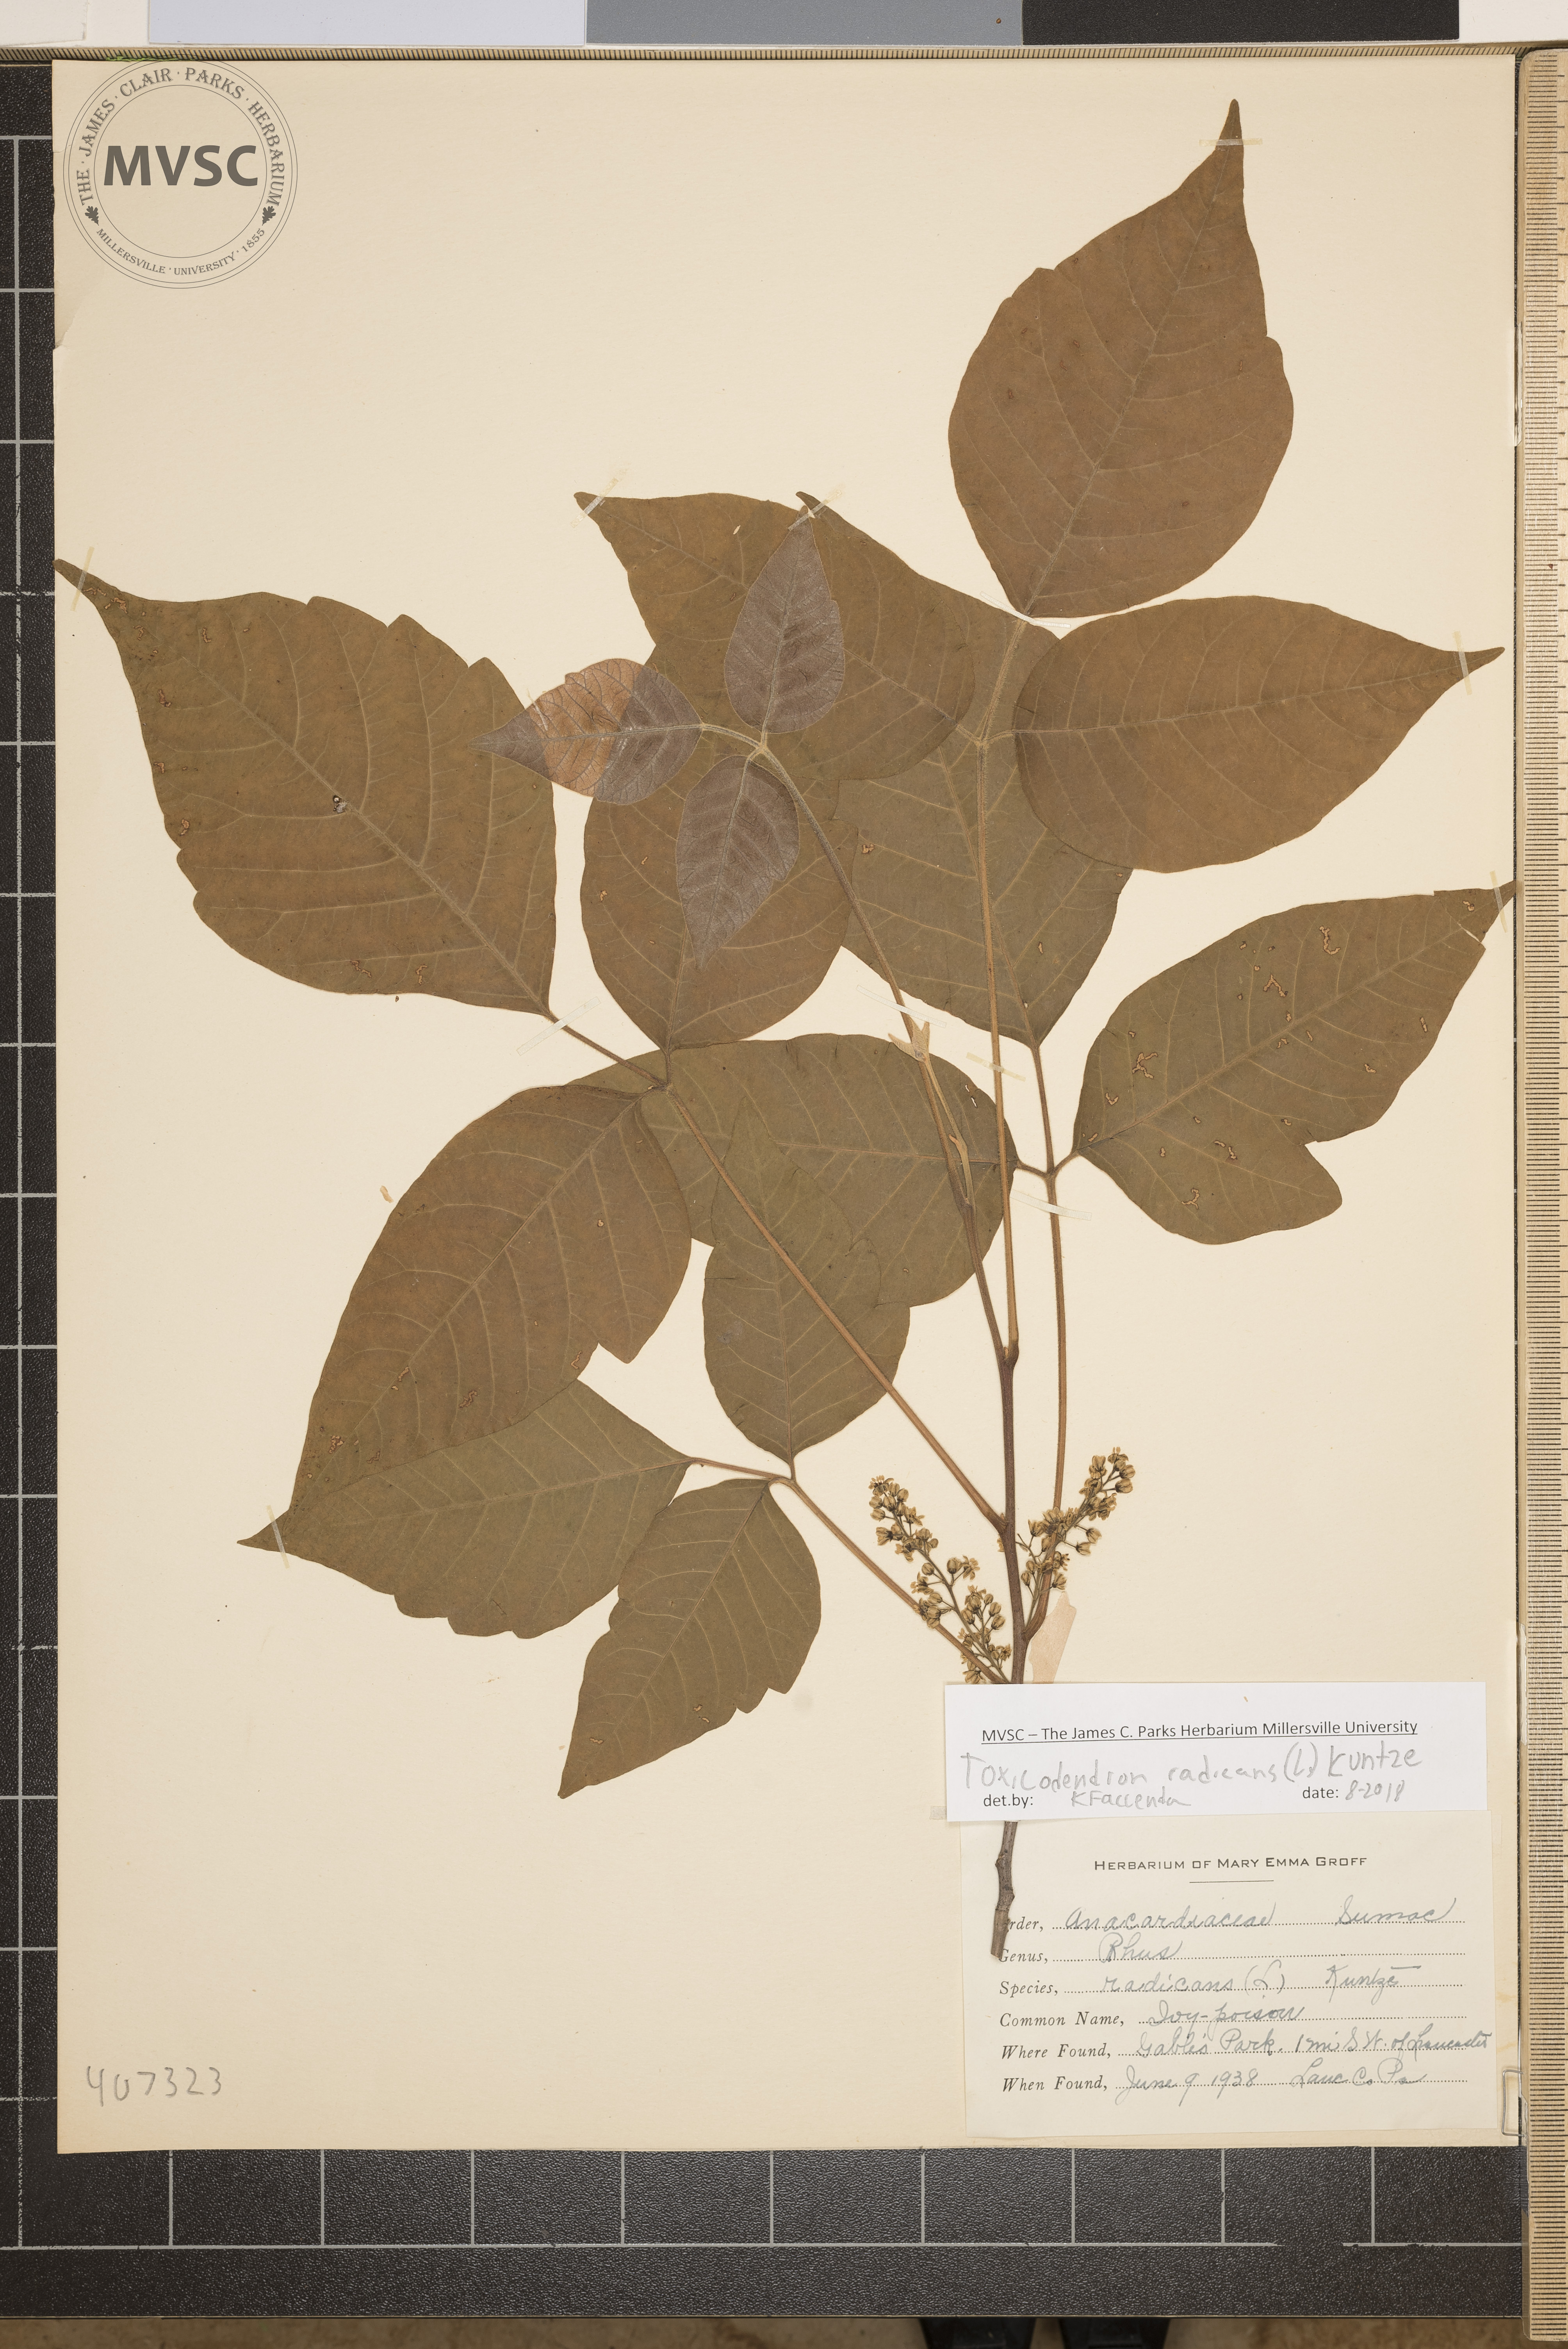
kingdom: Plantae
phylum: Tracheophyta
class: Magnoliopsida
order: Sapindales
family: Anacardiaceae
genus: Toxicodendron
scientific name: Toxicodendron radicans
